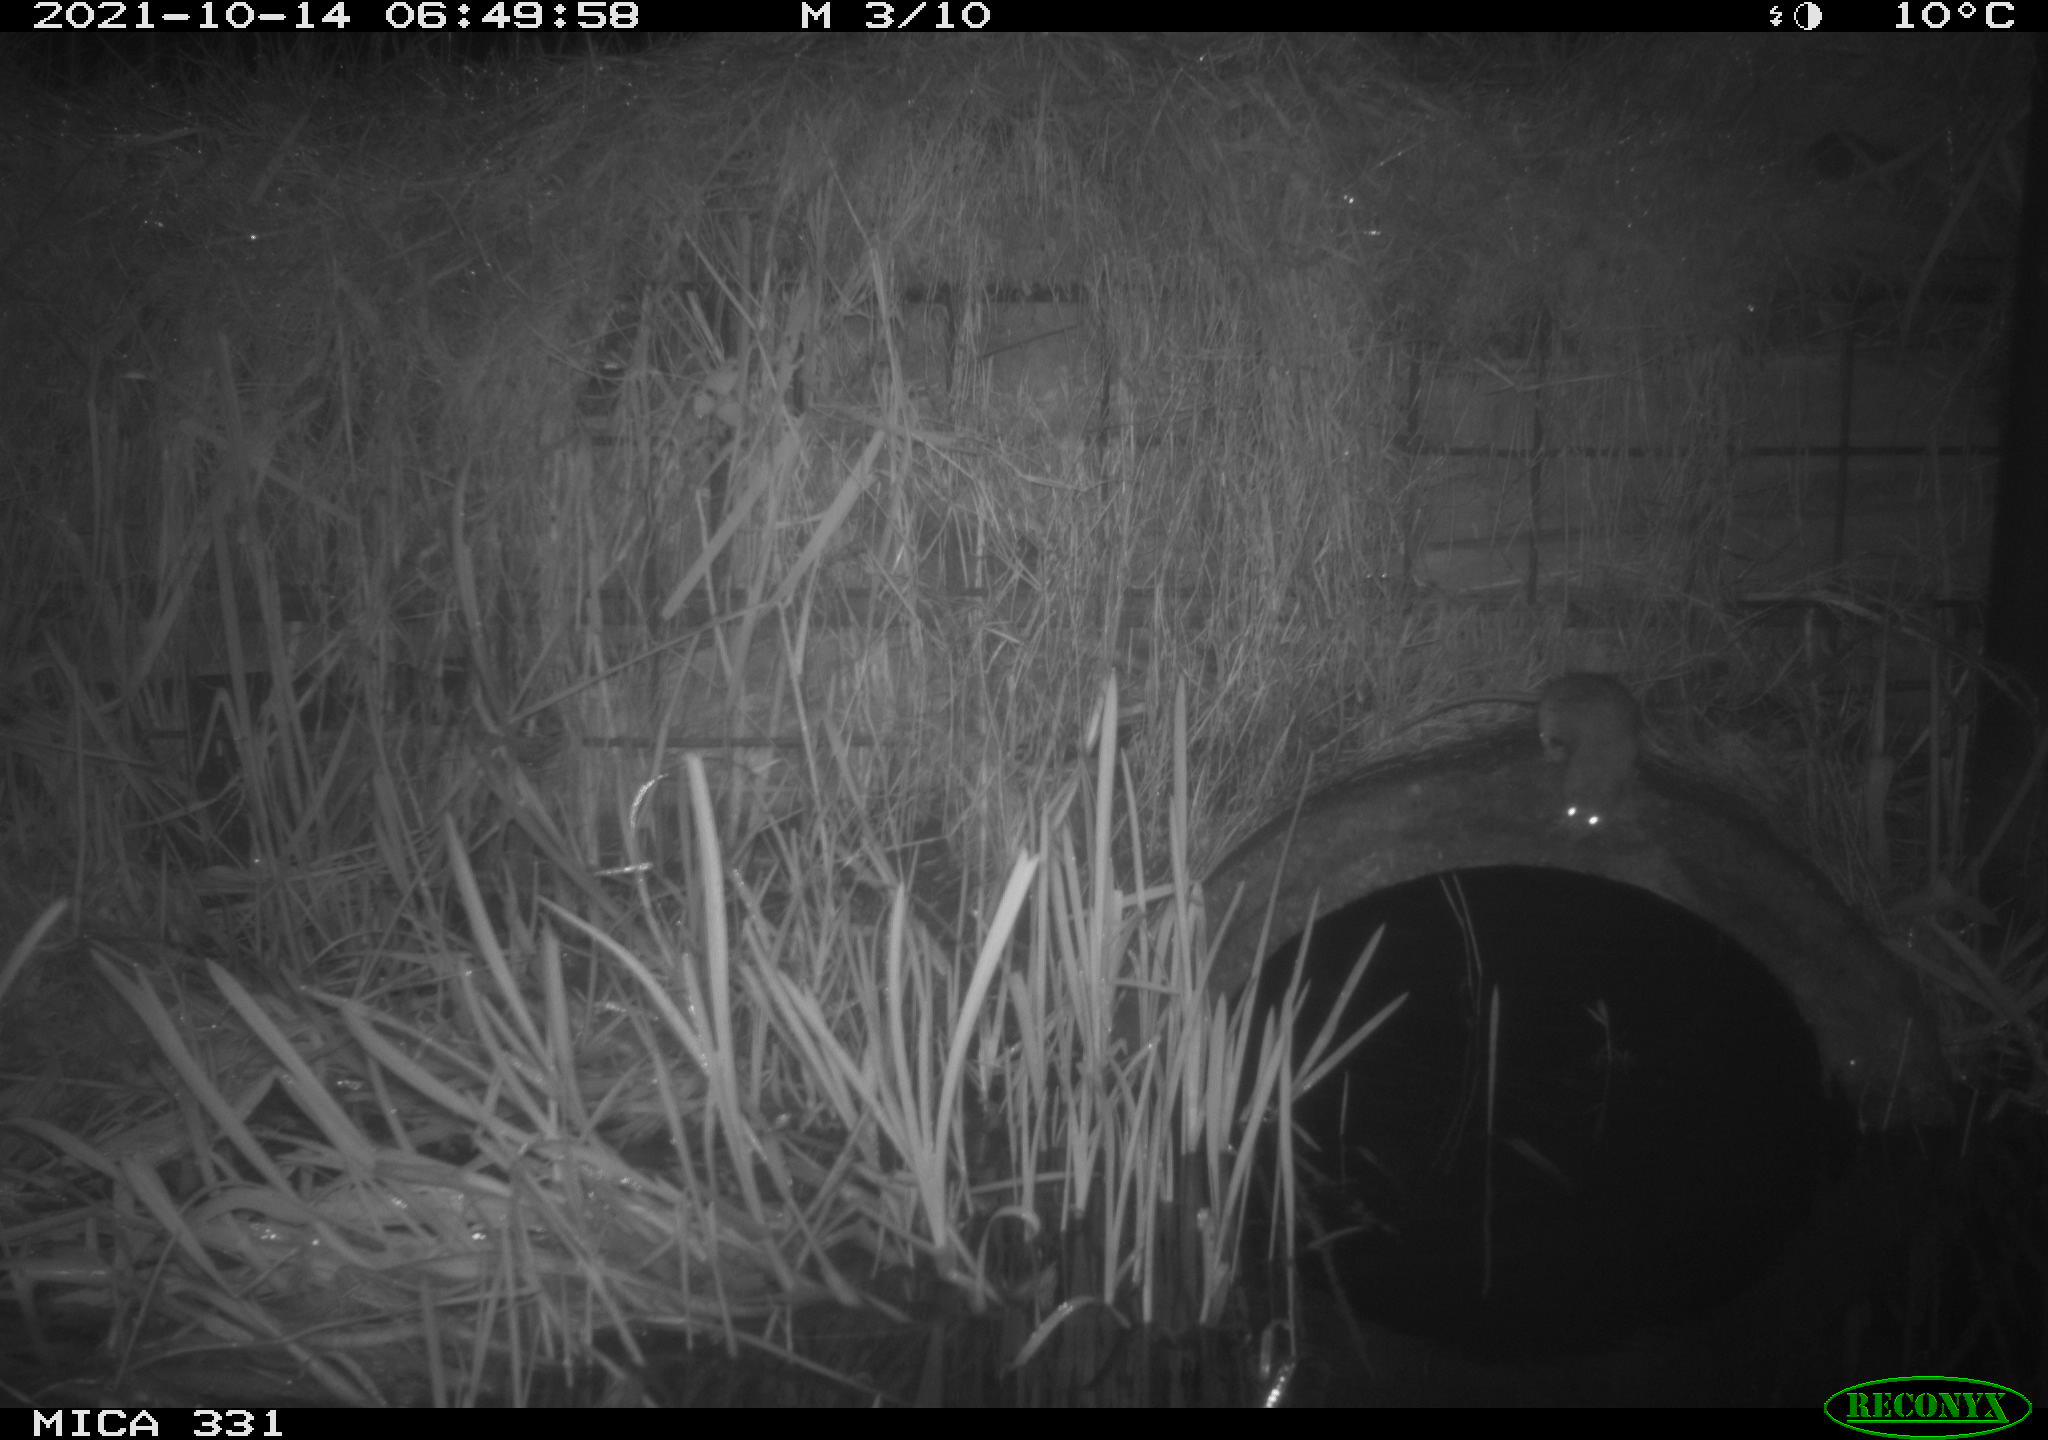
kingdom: Animalia
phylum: Chordata
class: Mammalia
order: Rodentia
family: Muridae
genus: Rattus
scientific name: Rattus norvegicus
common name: Brown rat
